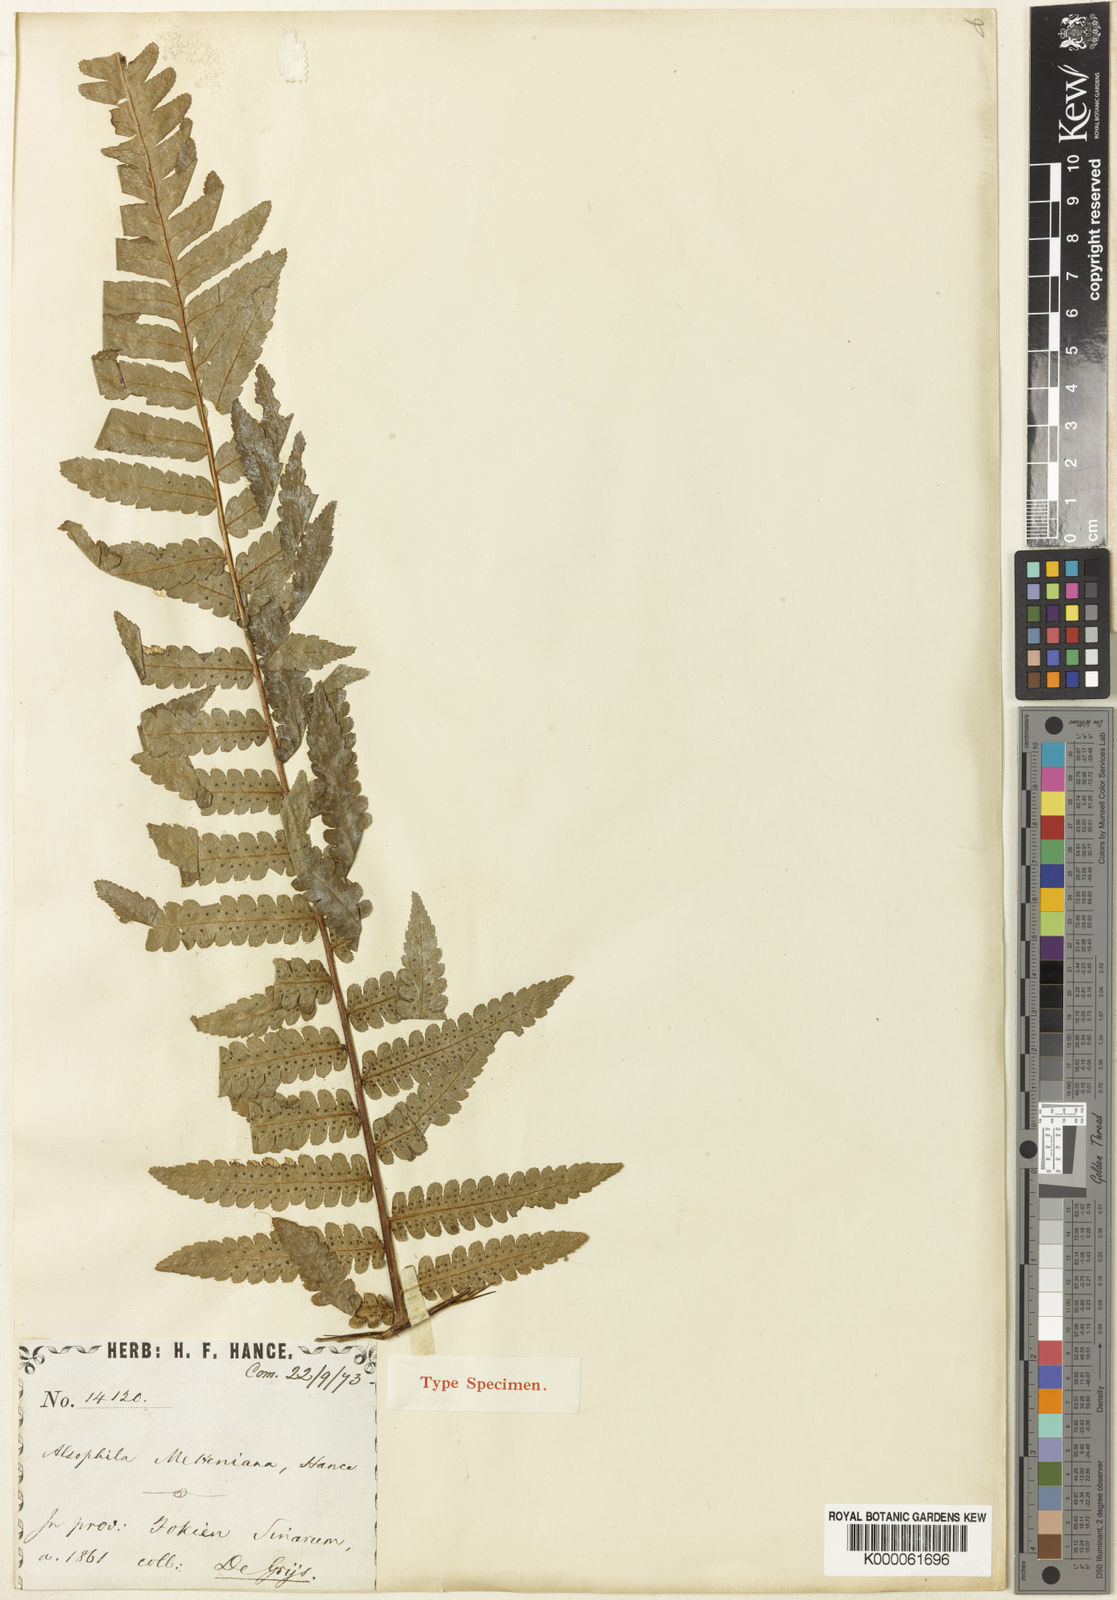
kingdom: Plantae
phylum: Tracheophyta
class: Polypodiopsida
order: Cyatheales
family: Cyatheaceae
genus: Gymnosphaera
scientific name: Gymnosphaera metteniana
